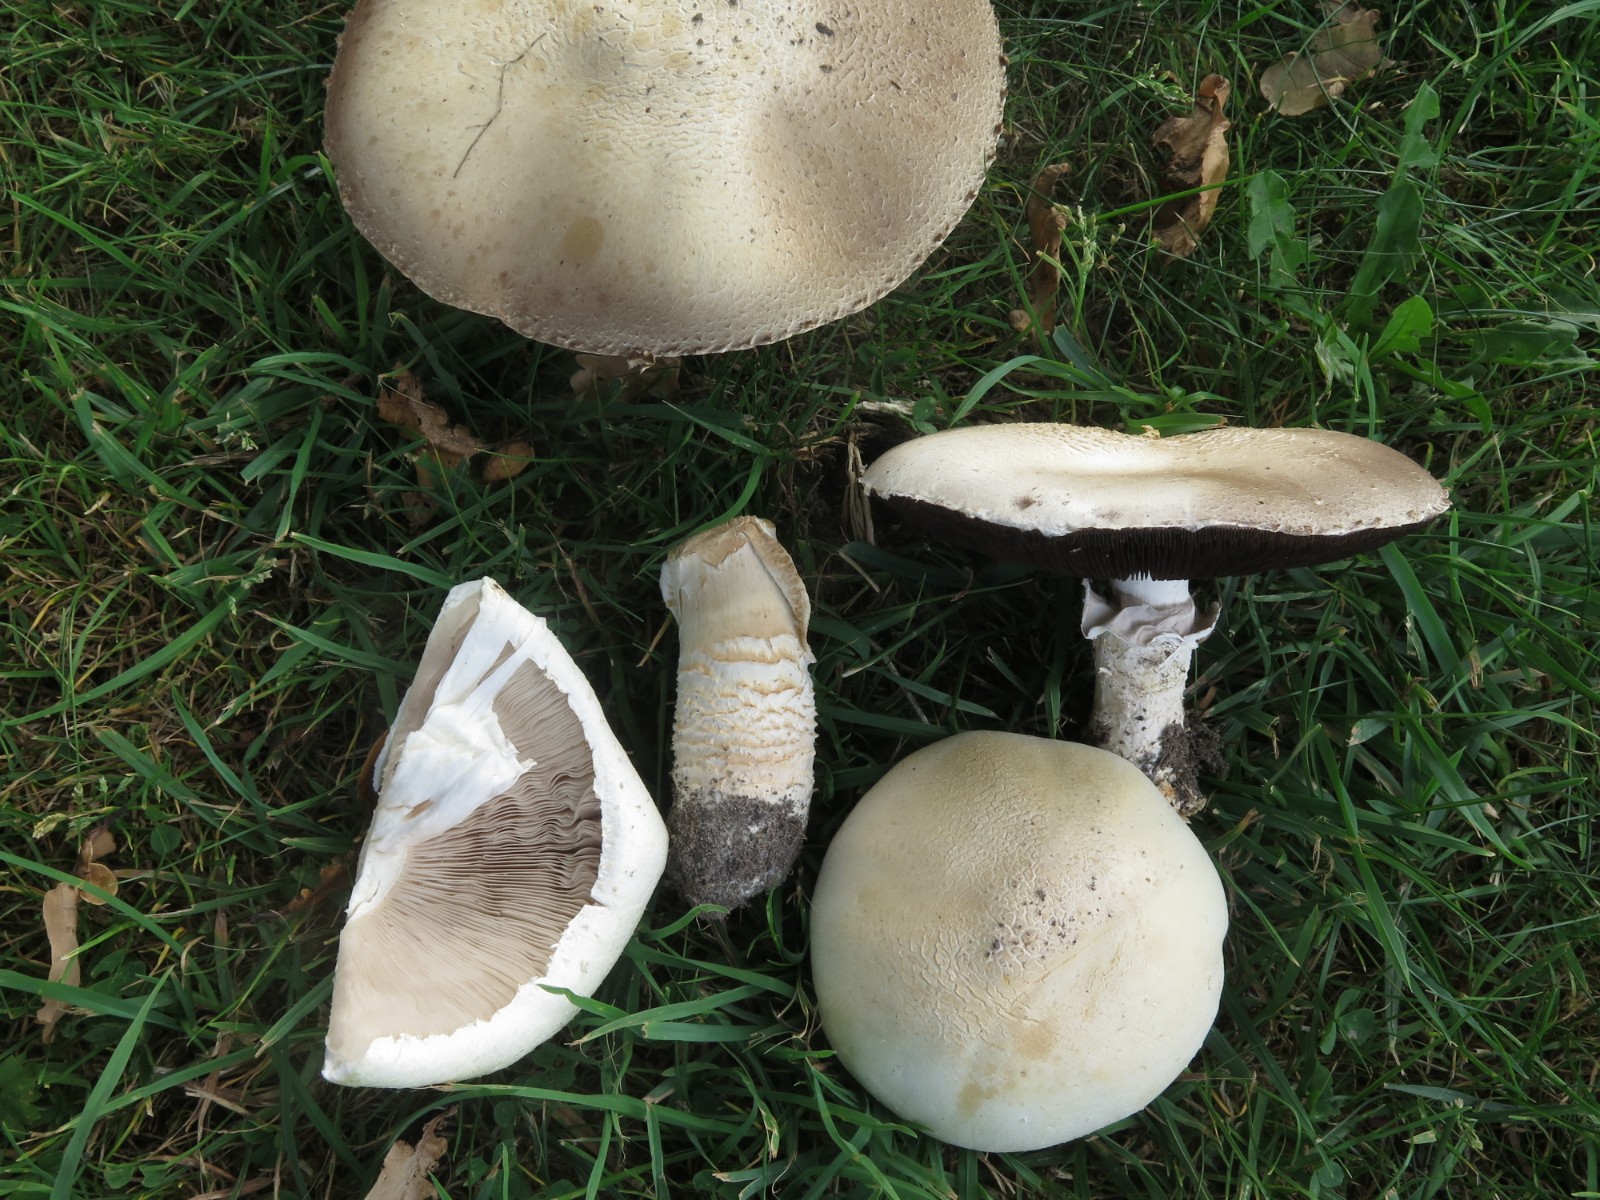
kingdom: Fungi
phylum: Basidiomycota
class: Agaricomycetes
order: Agaricales
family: Agaricaceae
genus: Agaricus
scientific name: Agaricus campestris
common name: mark-champignon
